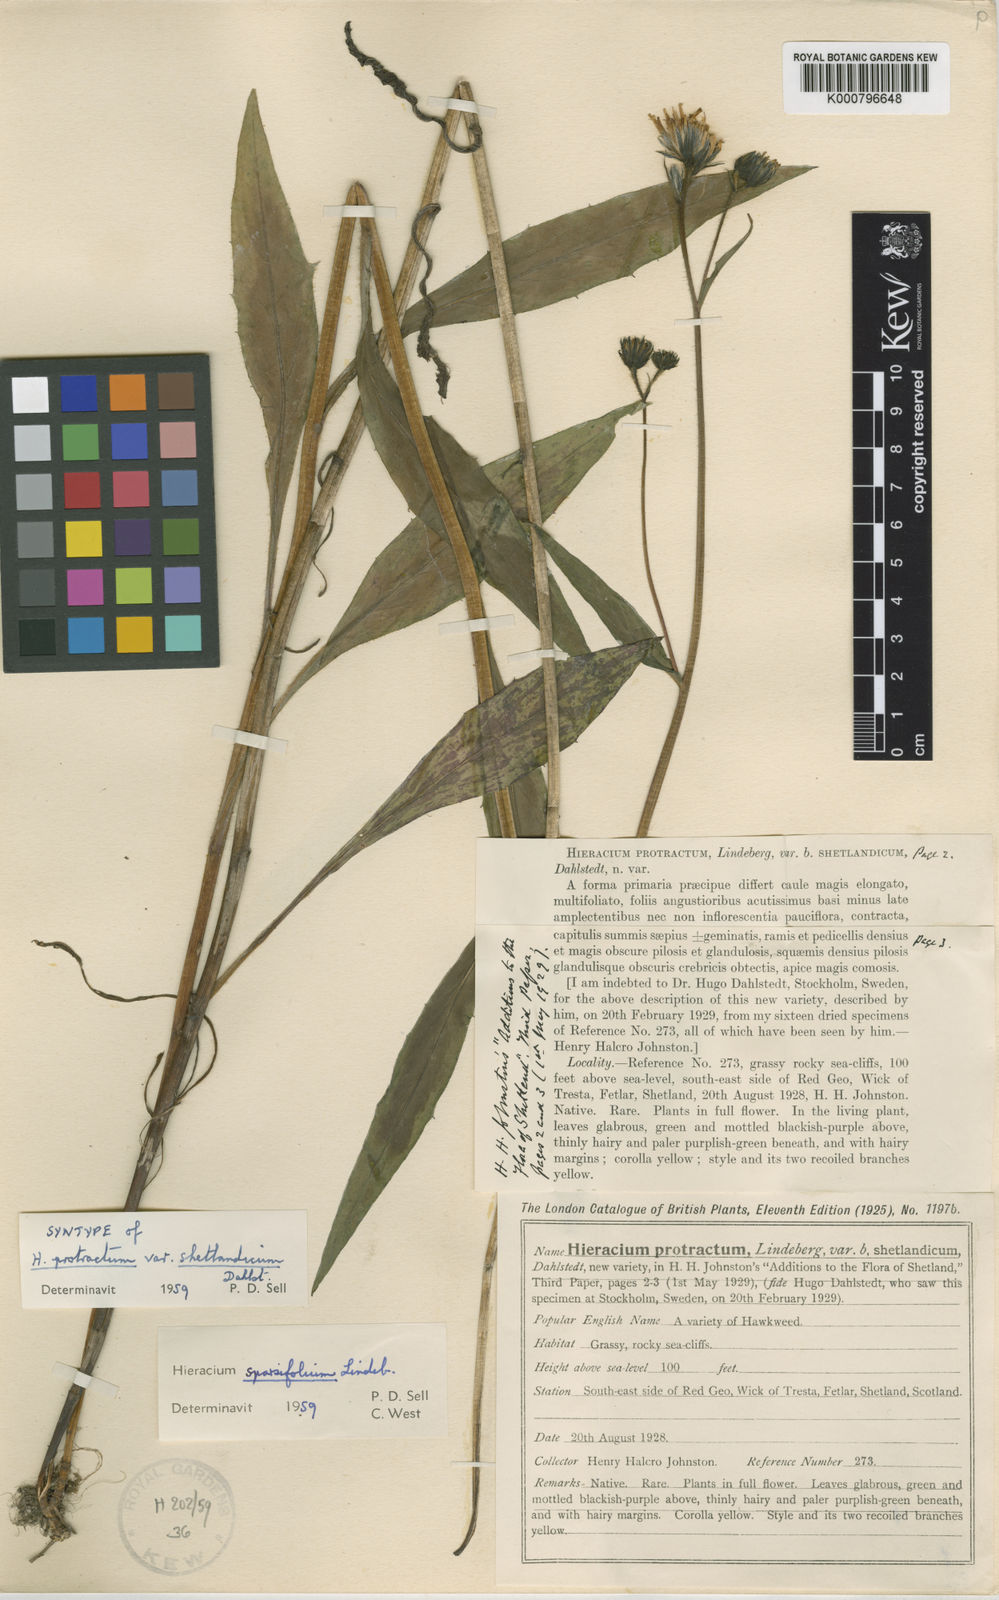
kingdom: Plantae
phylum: Tracheophyta
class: Magnoliopsida
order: Asterales
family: Asteraceae
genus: Hieracium
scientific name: Hieracium sparsifolium
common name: Sparse-leaved hawkweed
